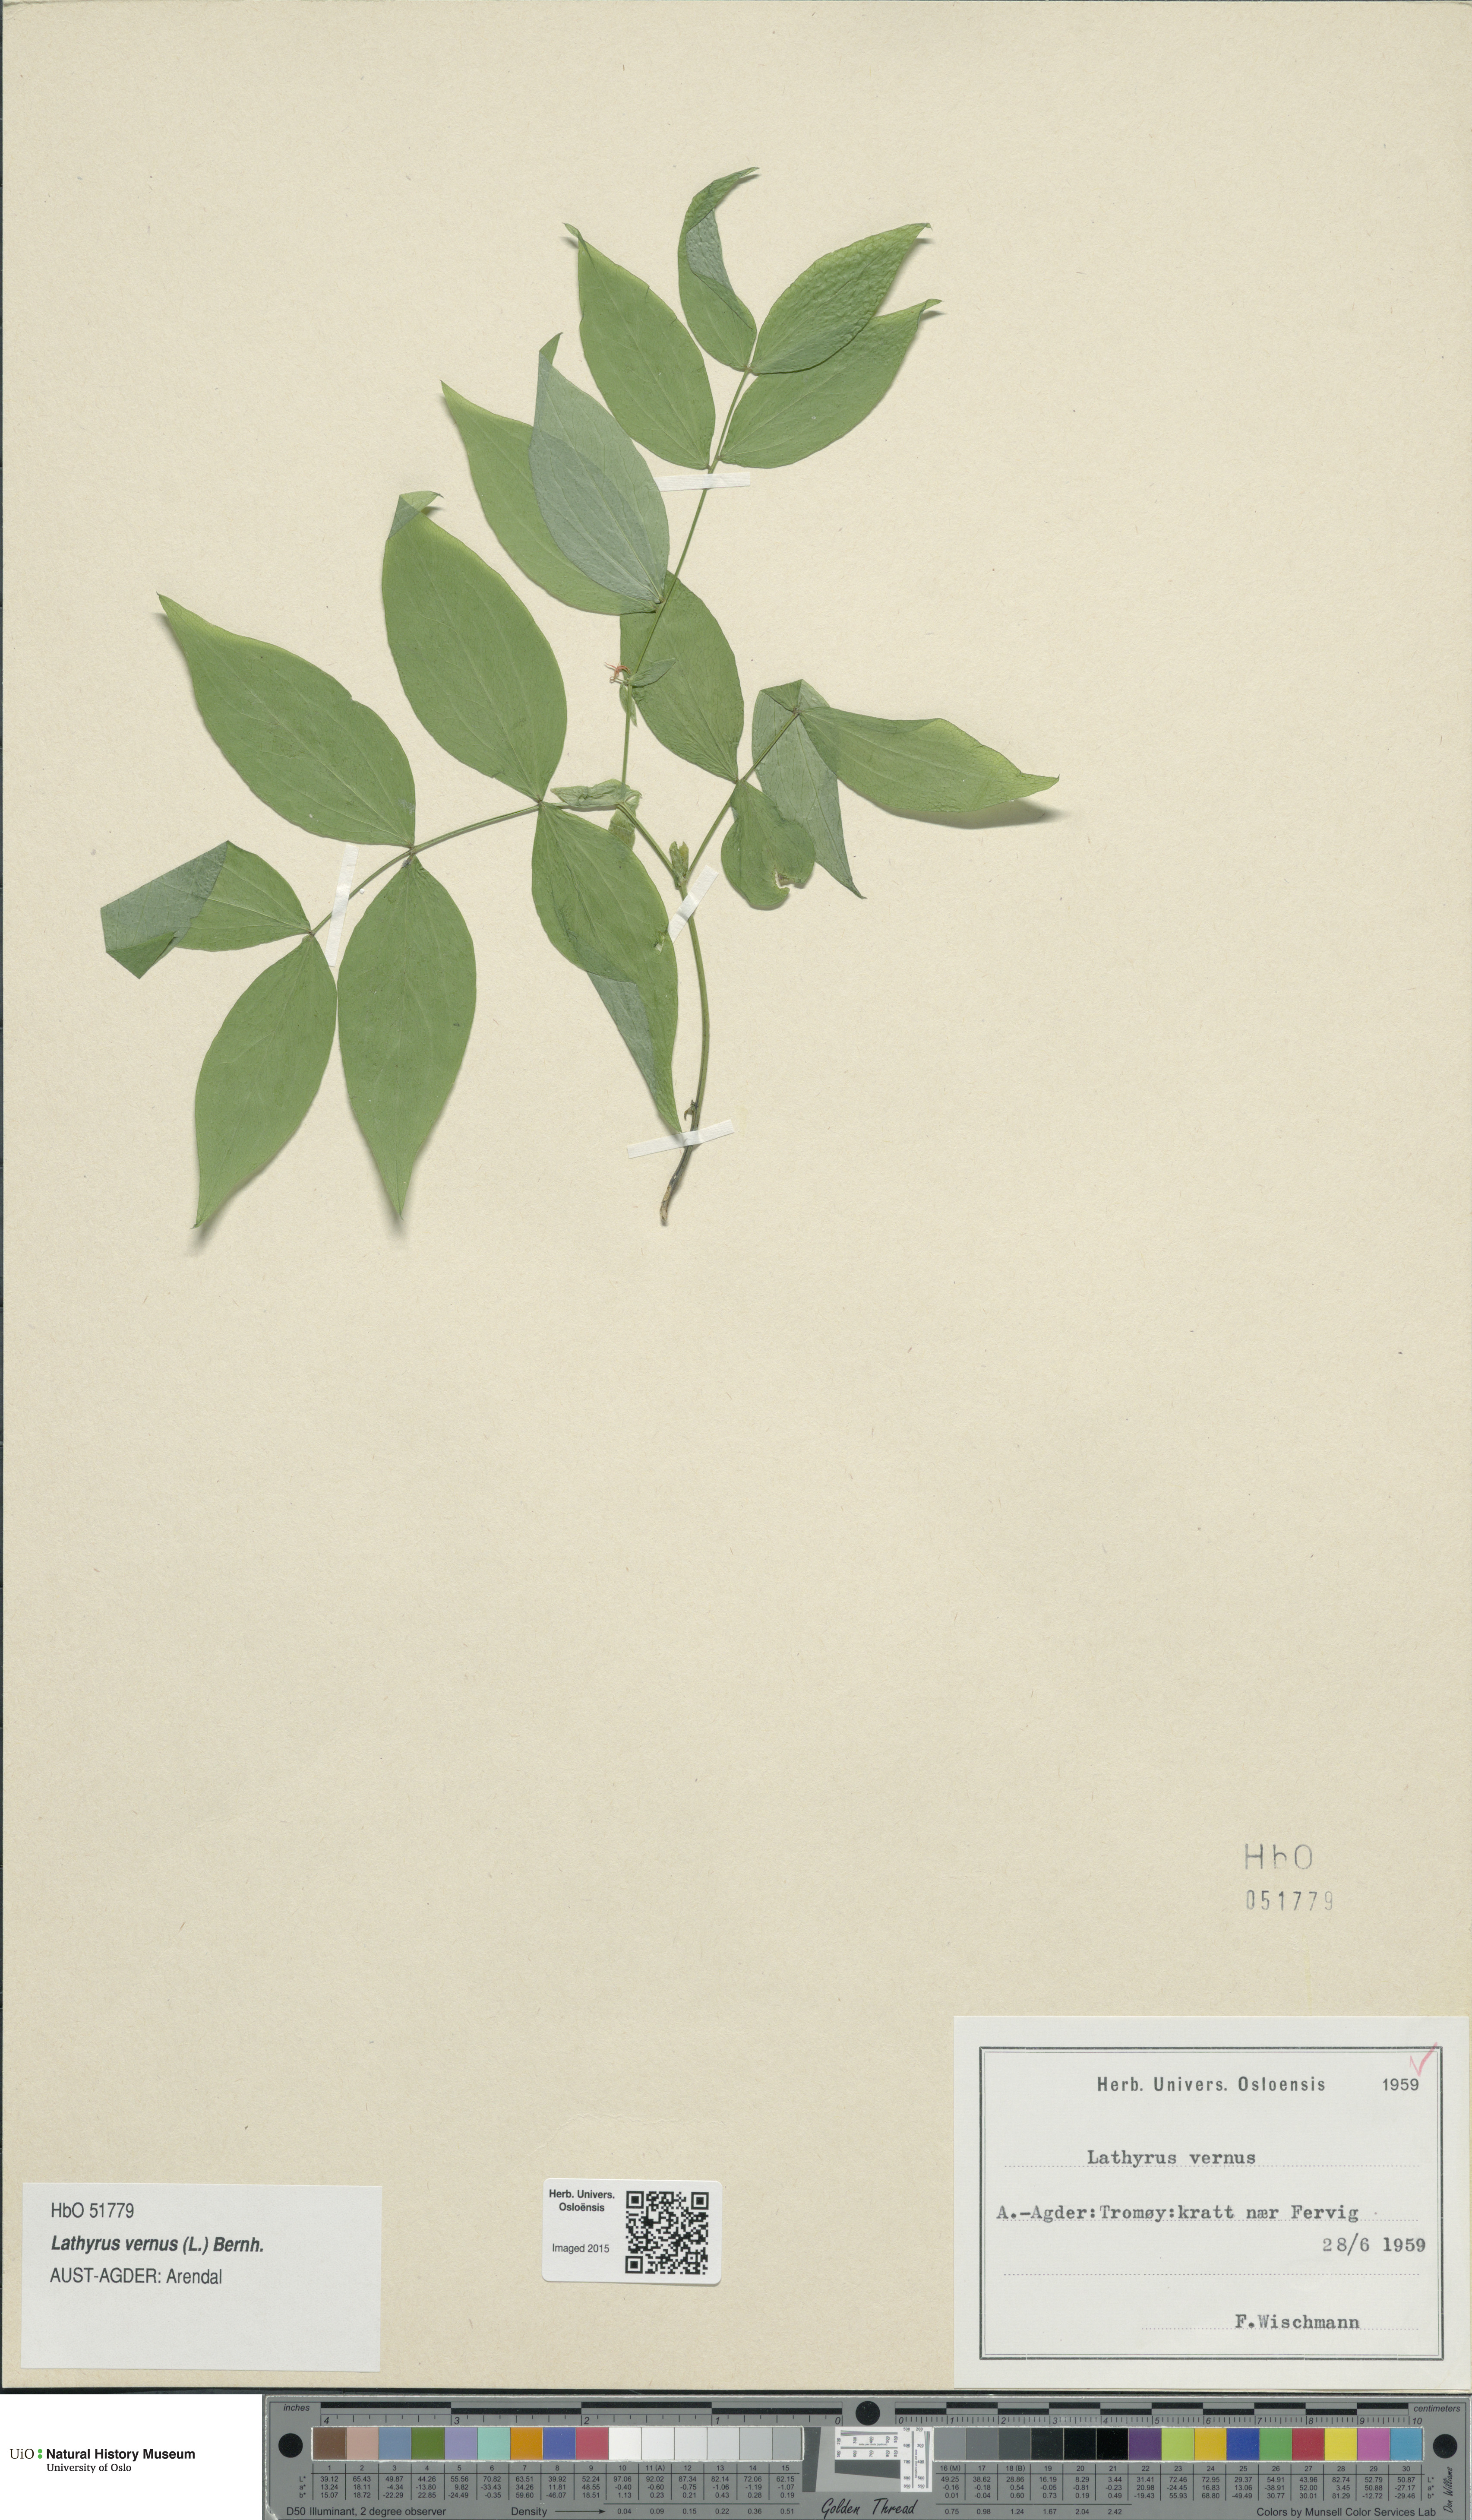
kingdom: Plantae
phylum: Tracheophyta
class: Magnoliopsida
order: Fabales
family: Fabaceae
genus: Lathyrus
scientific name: Lathyrus vernus
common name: Spring pea
